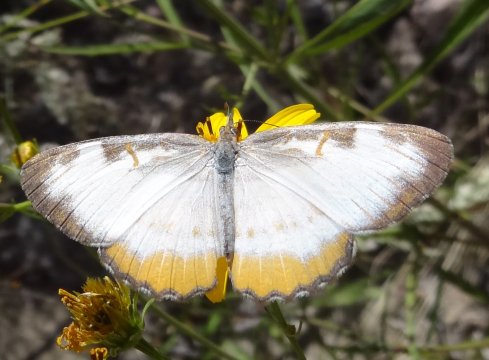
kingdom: Animalia
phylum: Arthropoda
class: Insecta
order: Lepidoptera
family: Nymphalidae
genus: Mestra
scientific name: Mestra amymone
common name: Common Mestra
